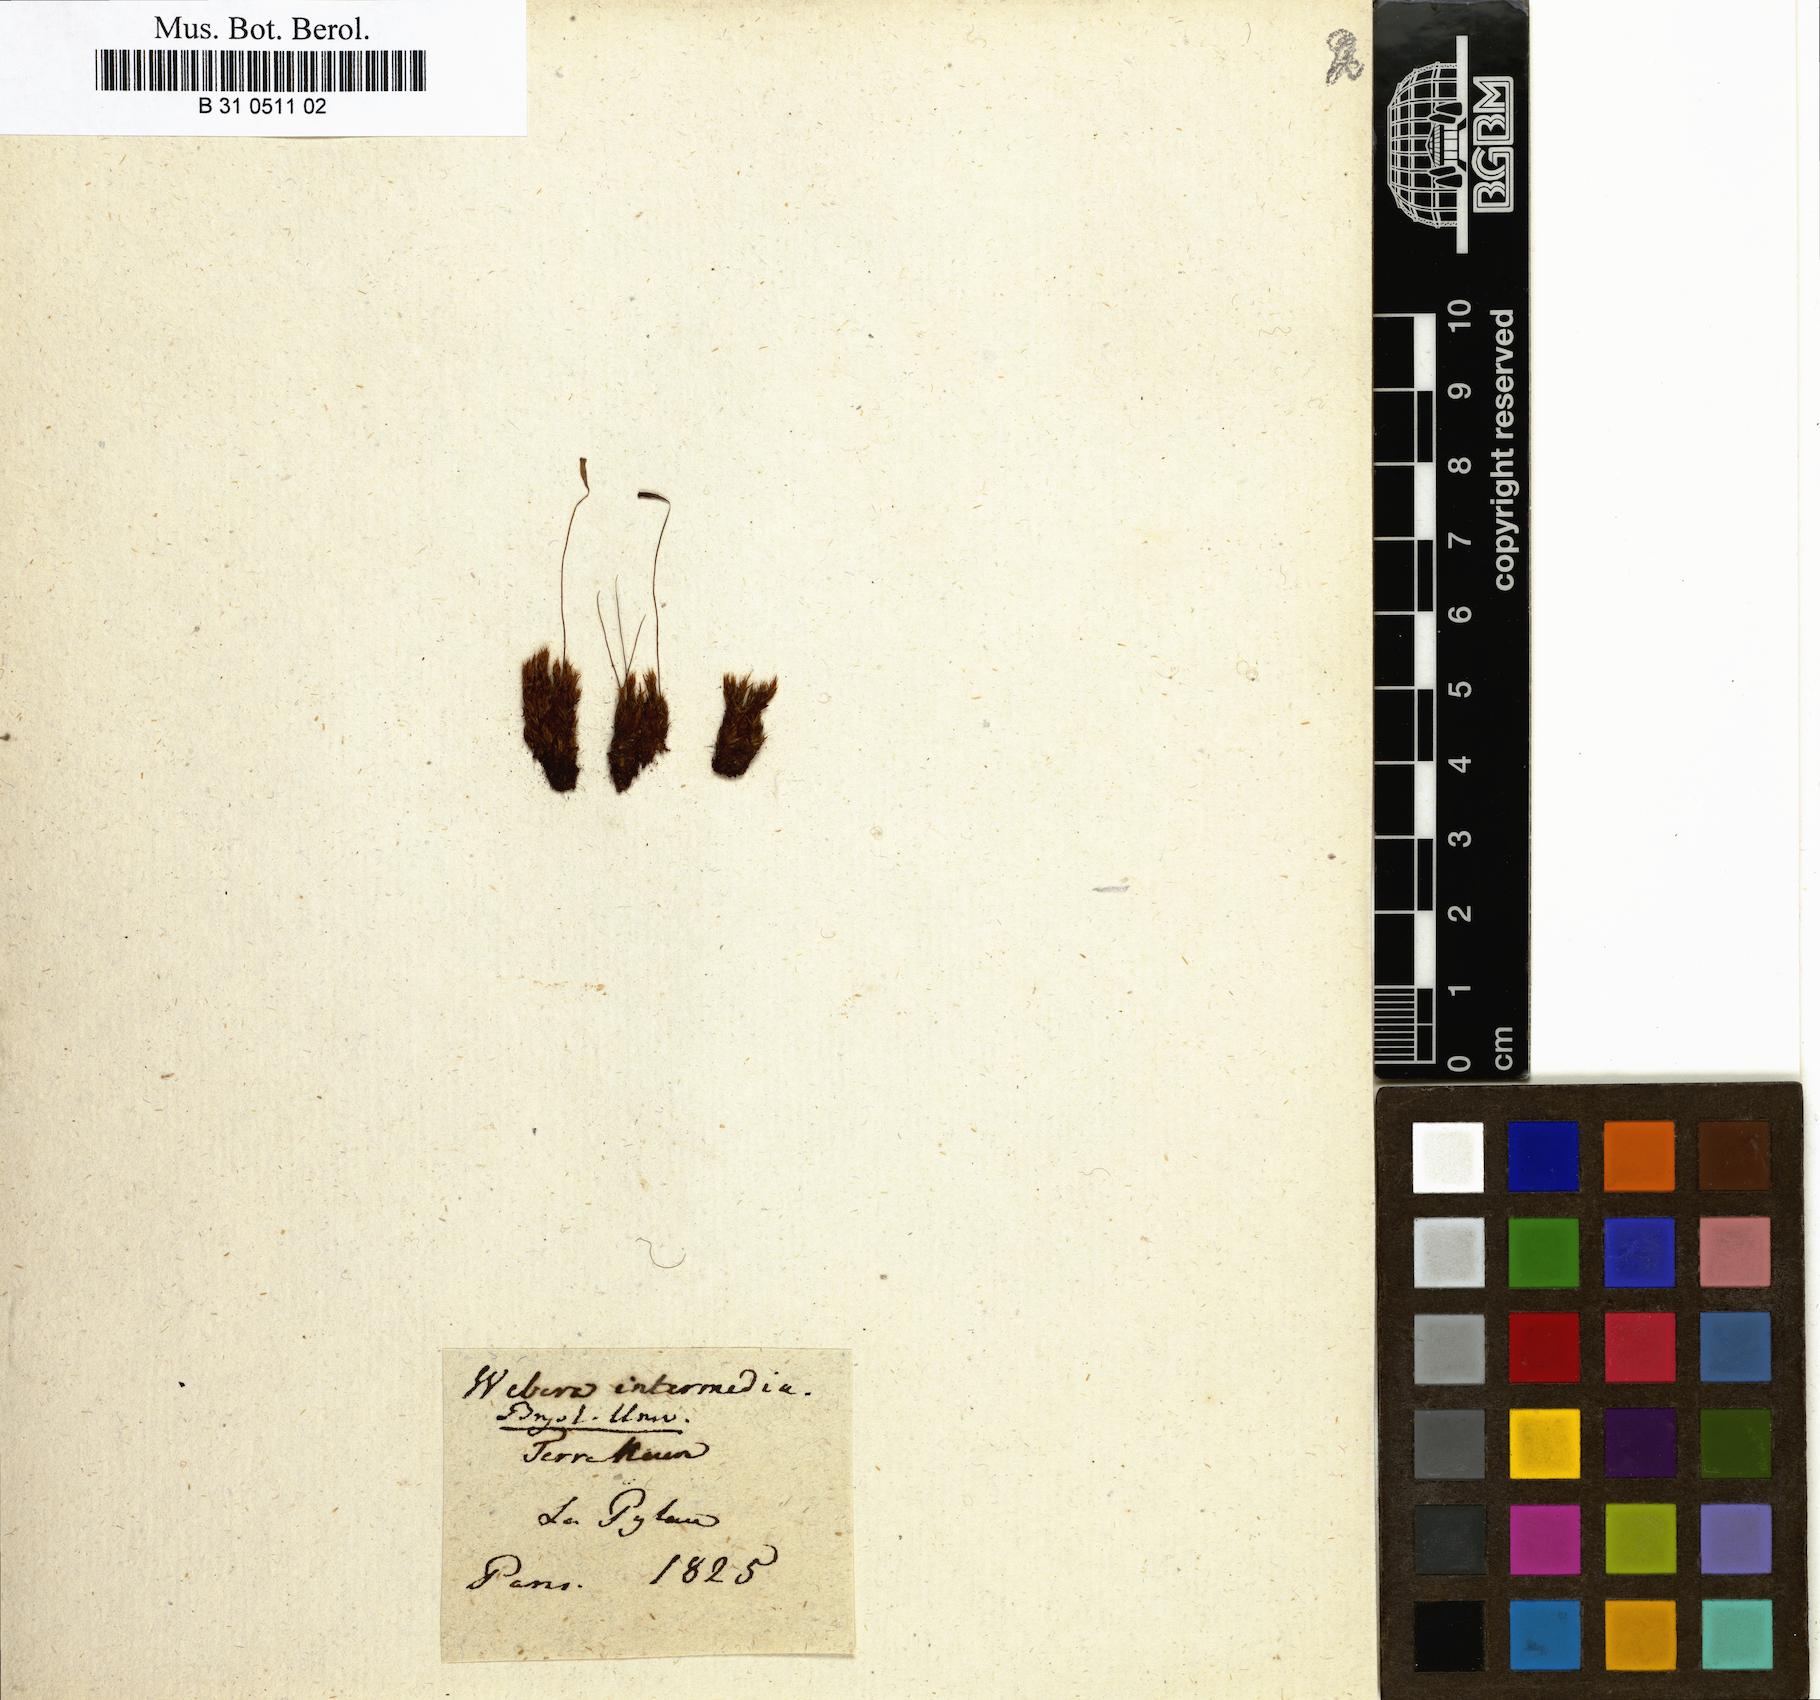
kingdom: Plantae
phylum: Bryophyta
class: Bryopsida
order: Bryales
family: Bryaceae
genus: Ptychostomum
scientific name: Ptychostomum intermedium
